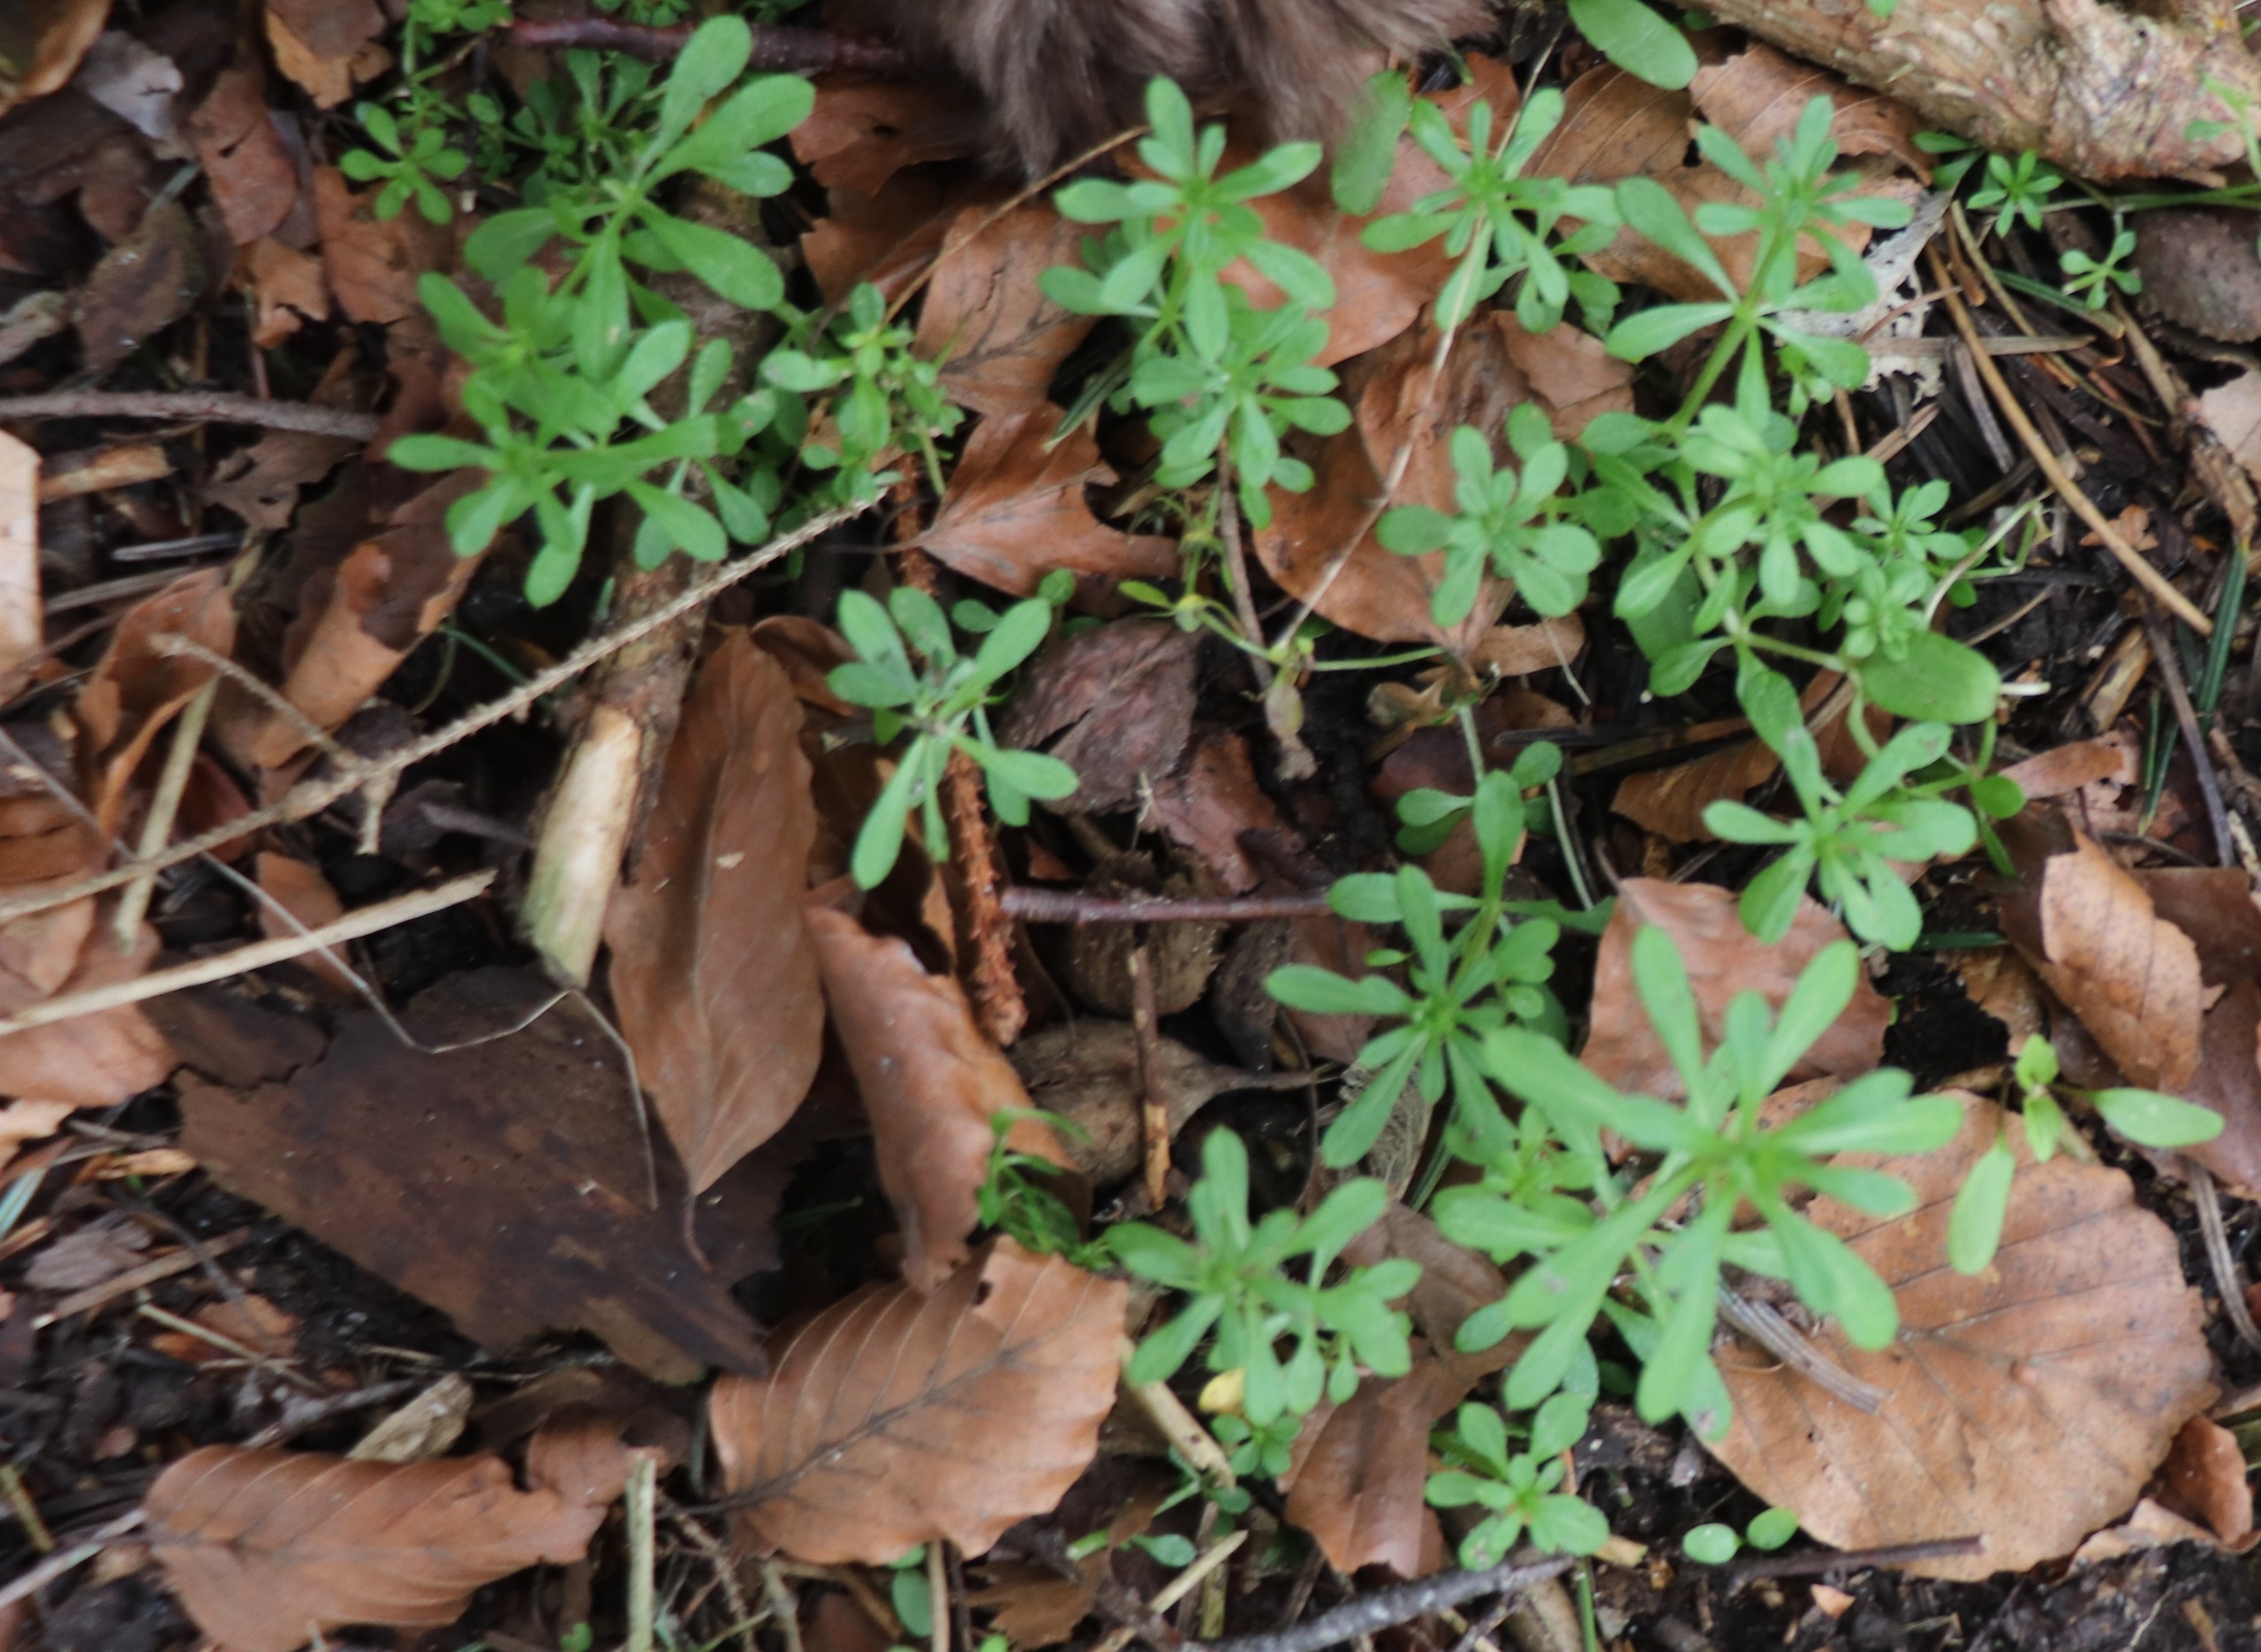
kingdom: Plantae
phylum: Tracheophyta
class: Magnoliopsida
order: Gentianales
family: Rubiaceae
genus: Galium
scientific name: Galium aparine
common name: Burre-snerre
